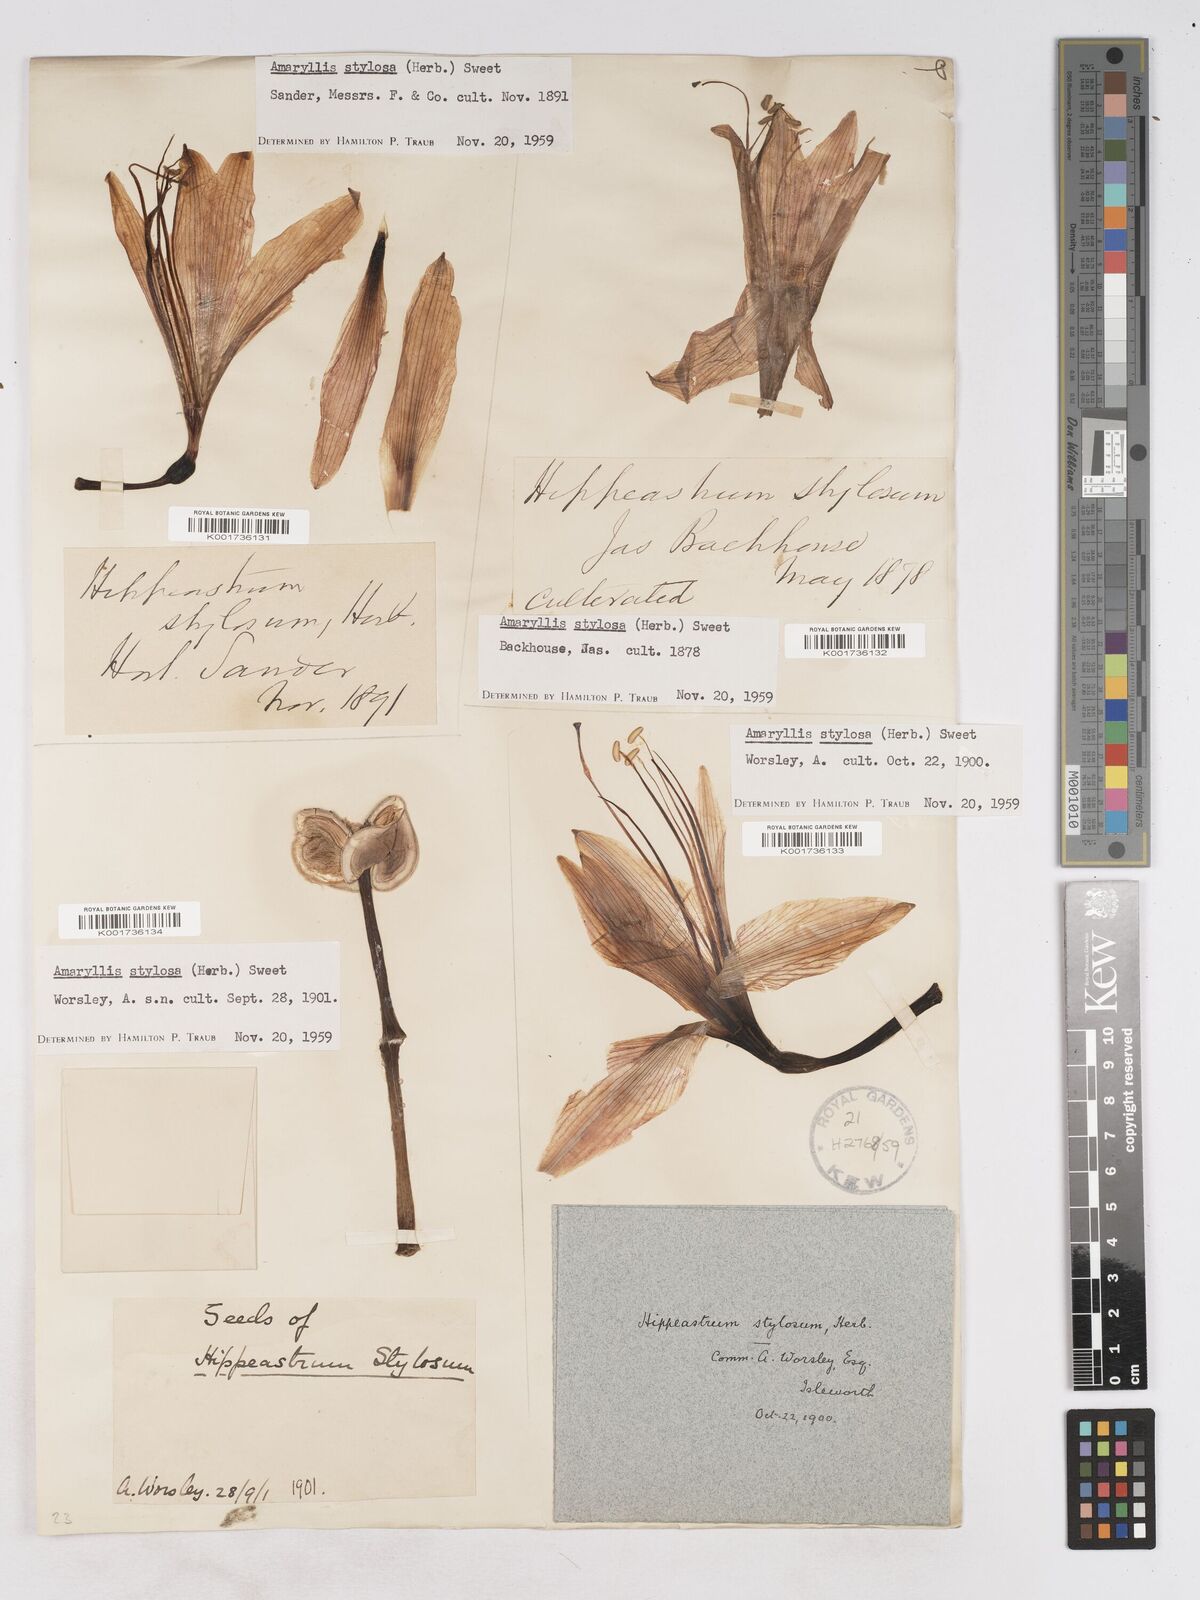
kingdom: Plantae
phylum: Tracheophyta
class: Liliopsida
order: Asparagales
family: Amaryllidaceae
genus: Hippeastrum
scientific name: Hippeastrum stylosum
